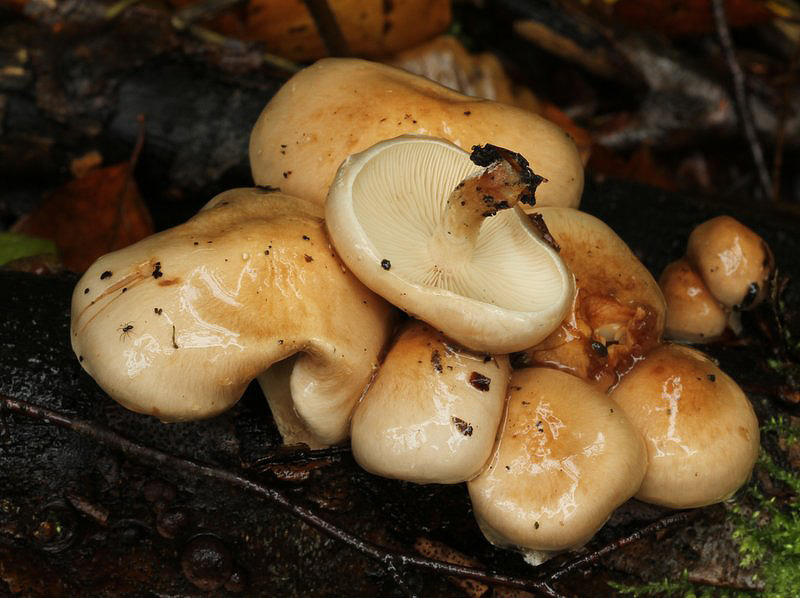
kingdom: Fungi
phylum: Basidiomycota
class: Agaricomycetes
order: Agaricales
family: Strophariaceae
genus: Pholiota
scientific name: Pholiota lenta
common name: løv-skælhat
